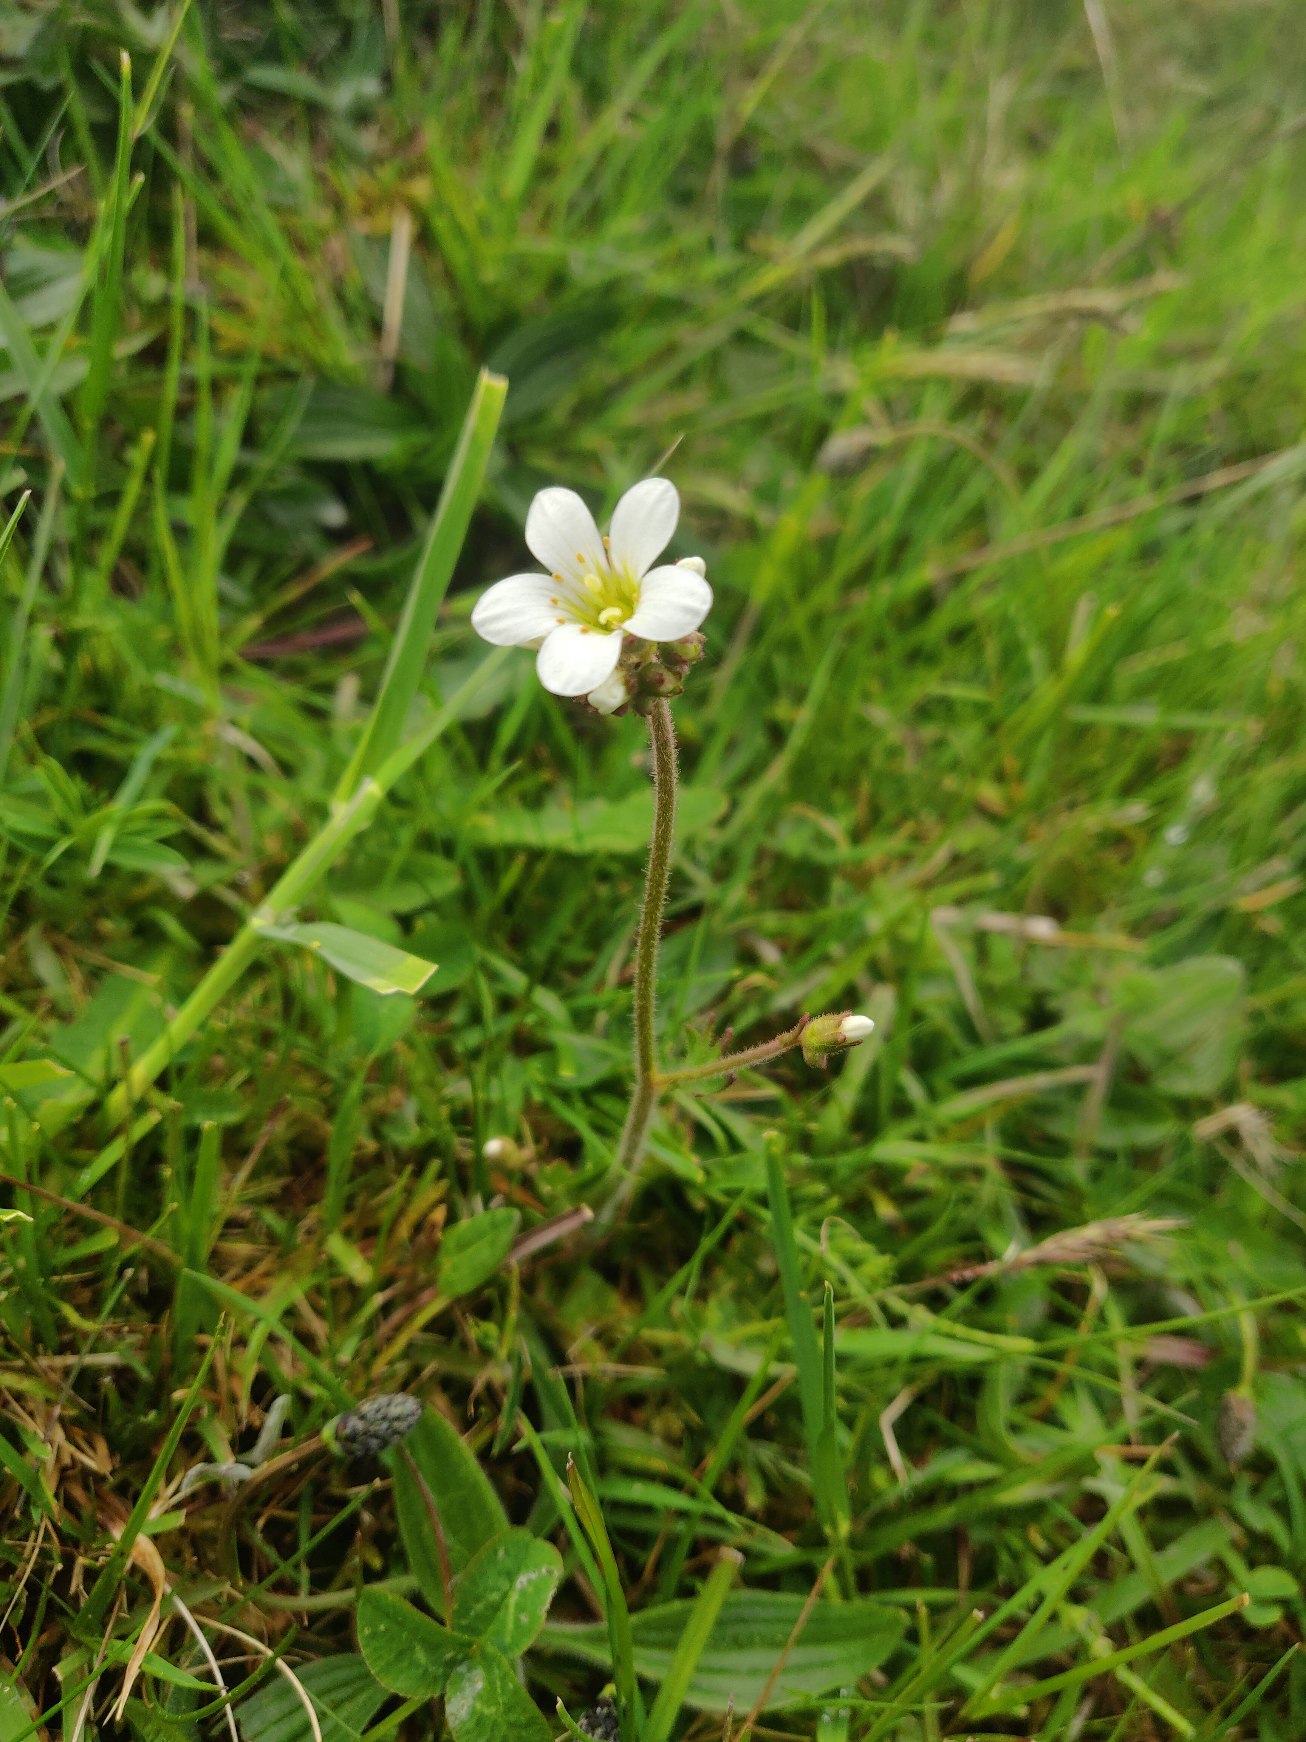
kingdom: Plantae
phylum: Tracheophyta
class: Magnoliopsida
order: Saxifragales
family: Saxifragaceae
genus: Saxifraga
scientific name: Saxifraga granulata
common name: Kornet stenbræk
